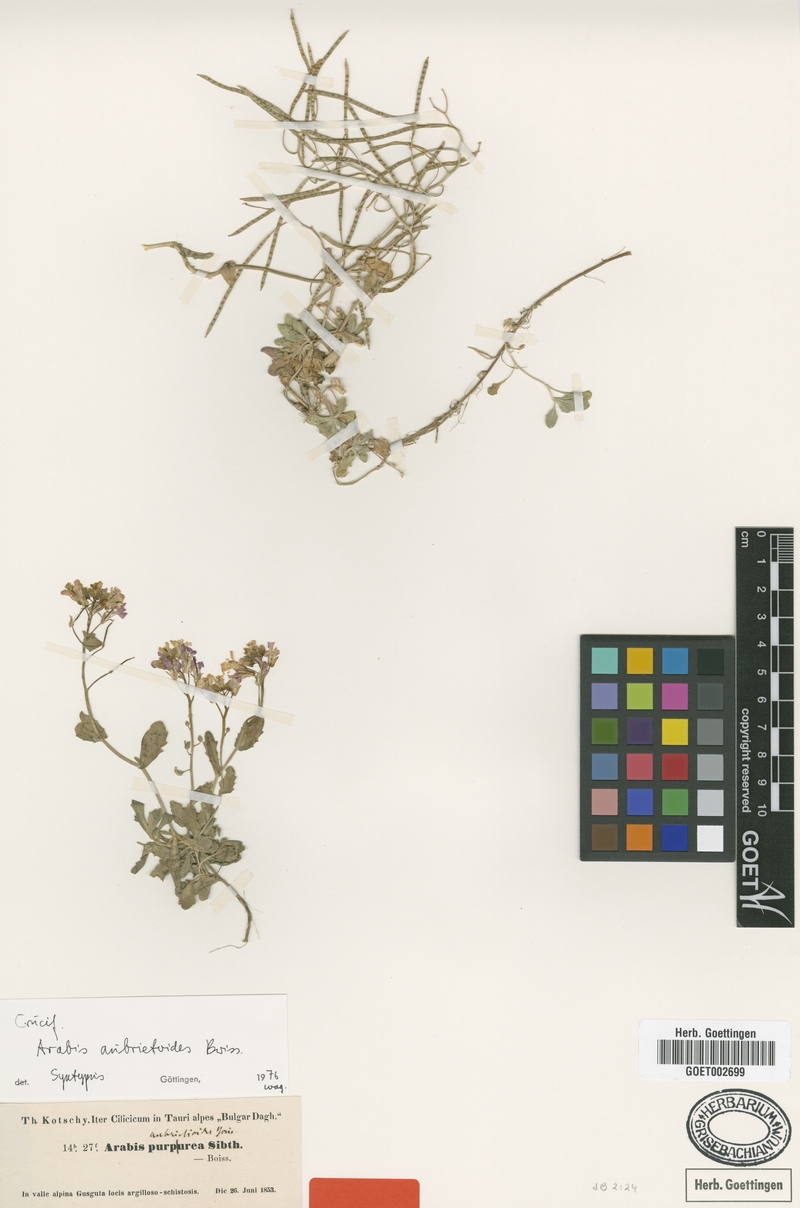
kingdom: Plantae
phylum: Tracheophyta
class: Magnoliopsida
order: Brassicales
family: Brassicaceae
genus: Arabis
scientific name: Arabis aubrietioides
